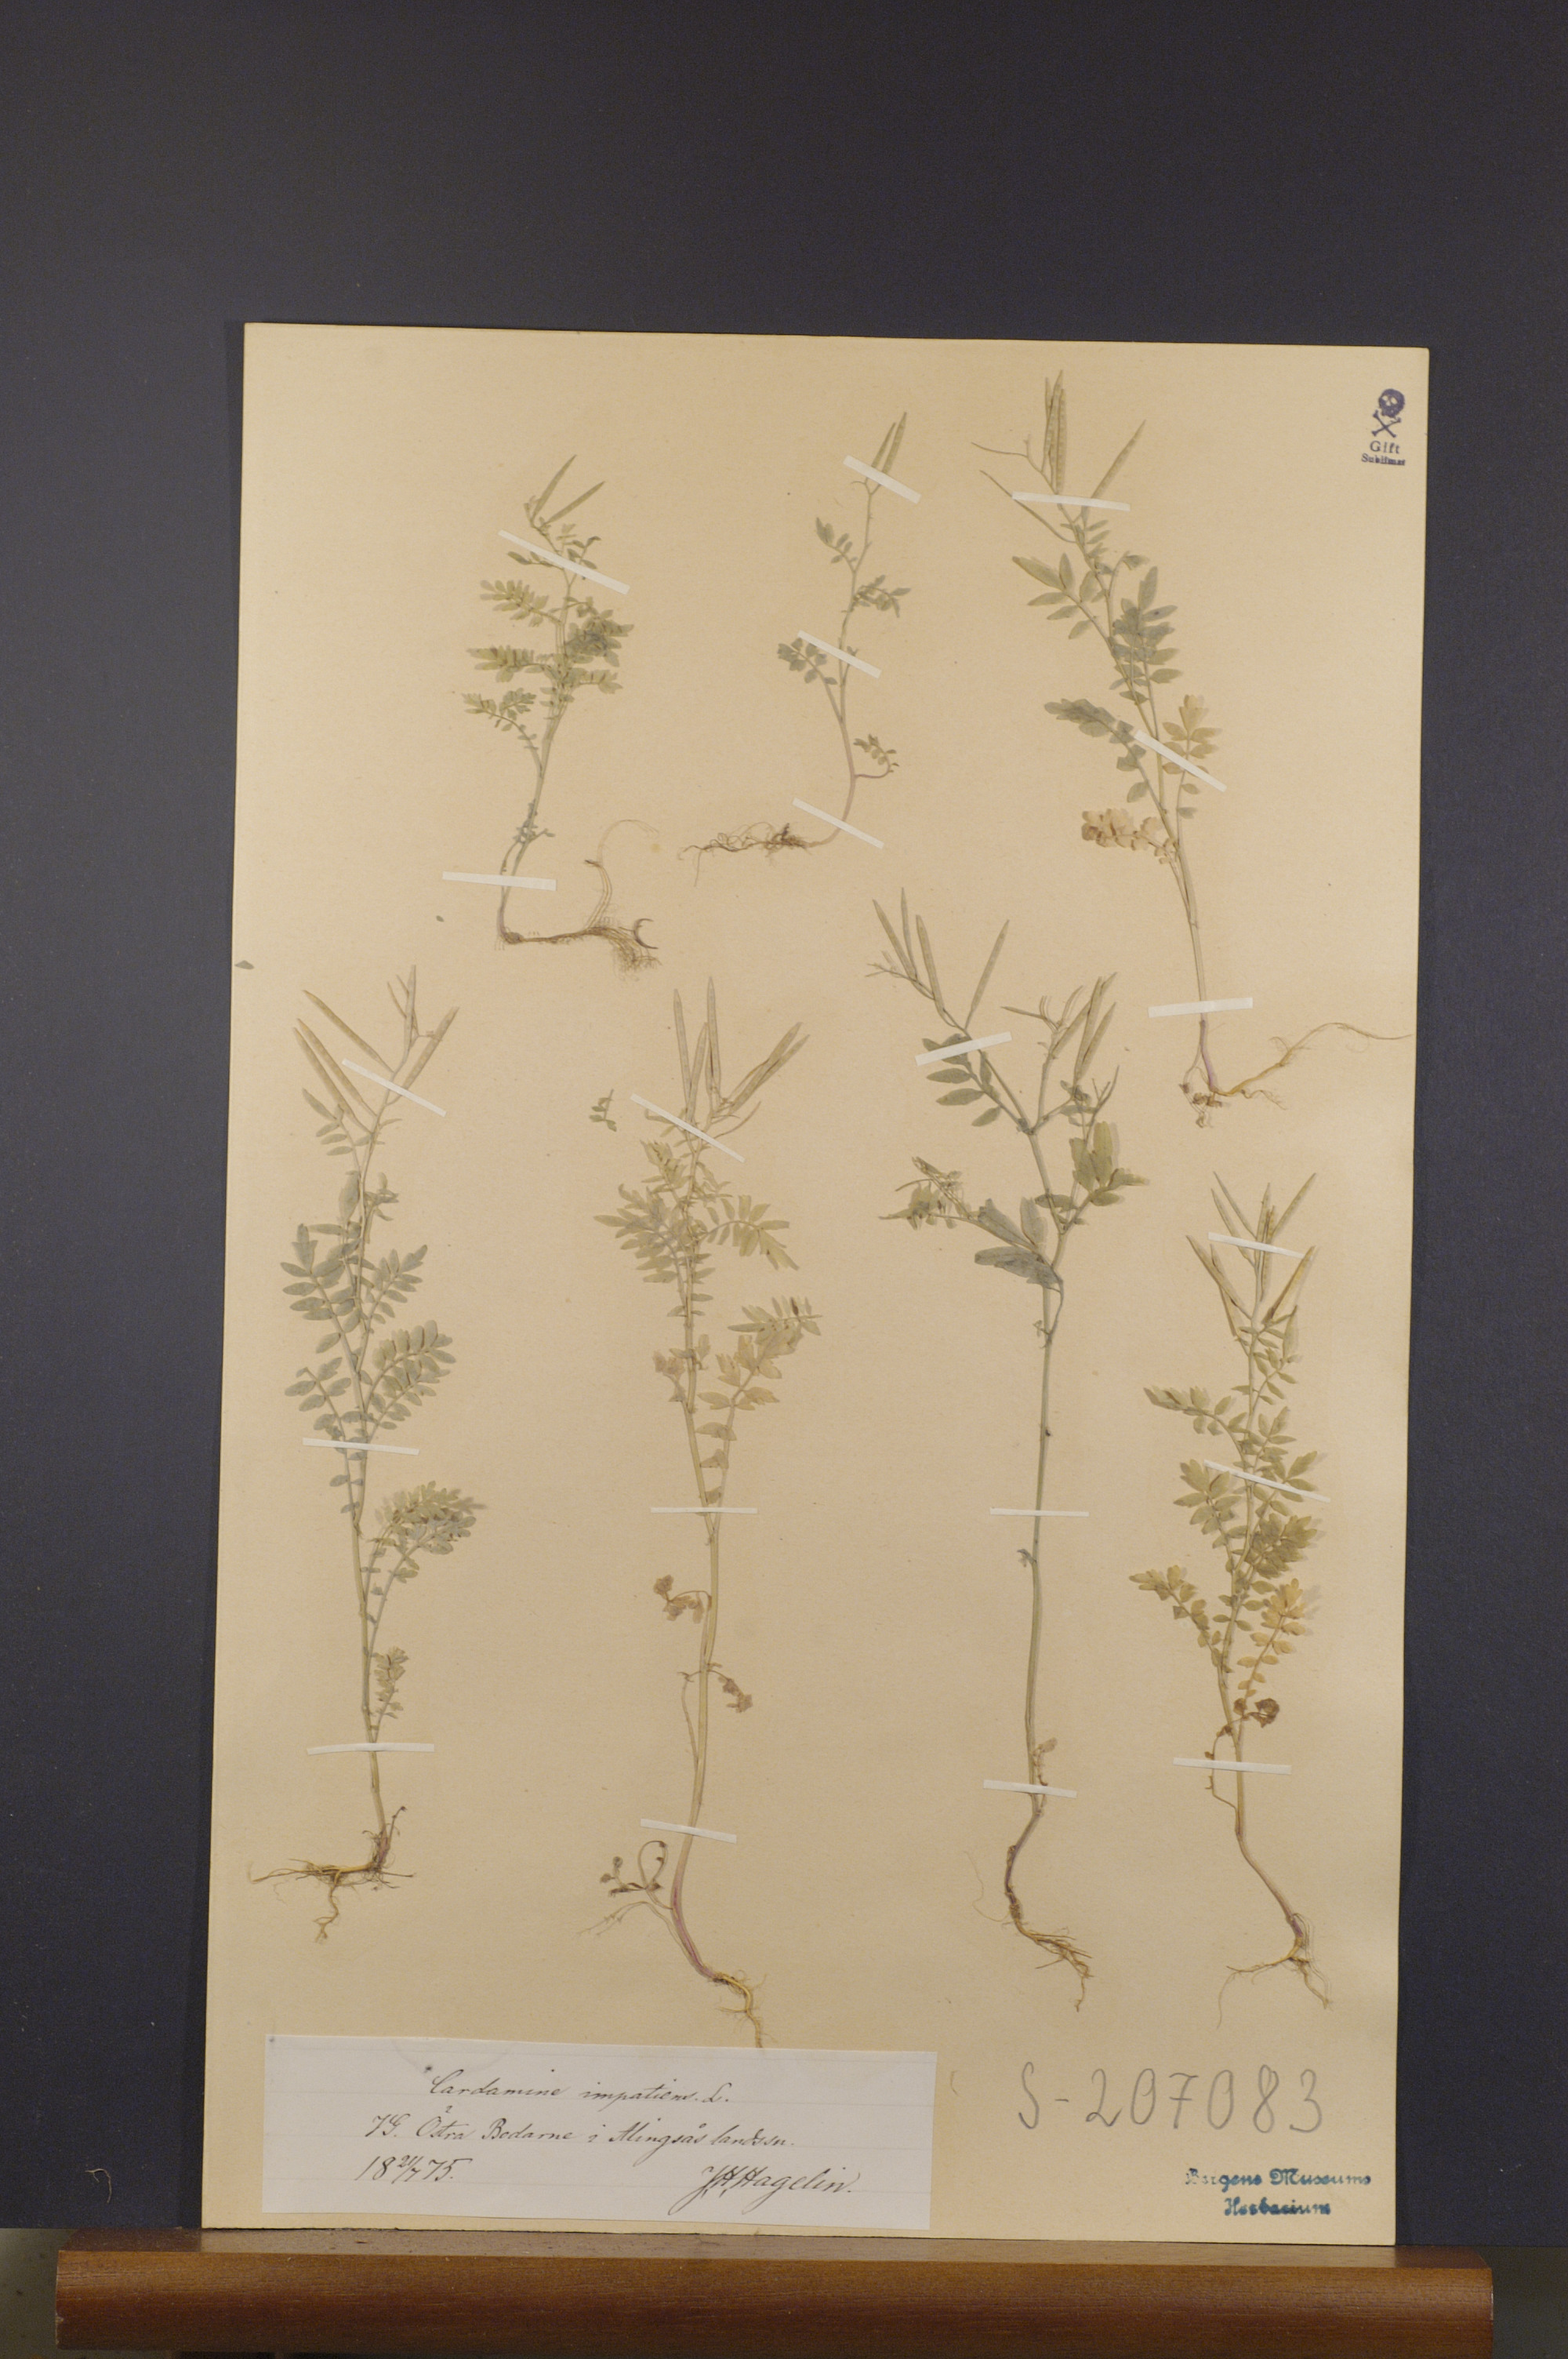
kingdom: Plantae
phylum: Tracheophyta
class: Magnoliopsida
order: Brassicales
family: Brassicaceae
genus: Cardamine
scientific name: Cardamine impatiens
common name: Narrow-leaved bitter-cress
